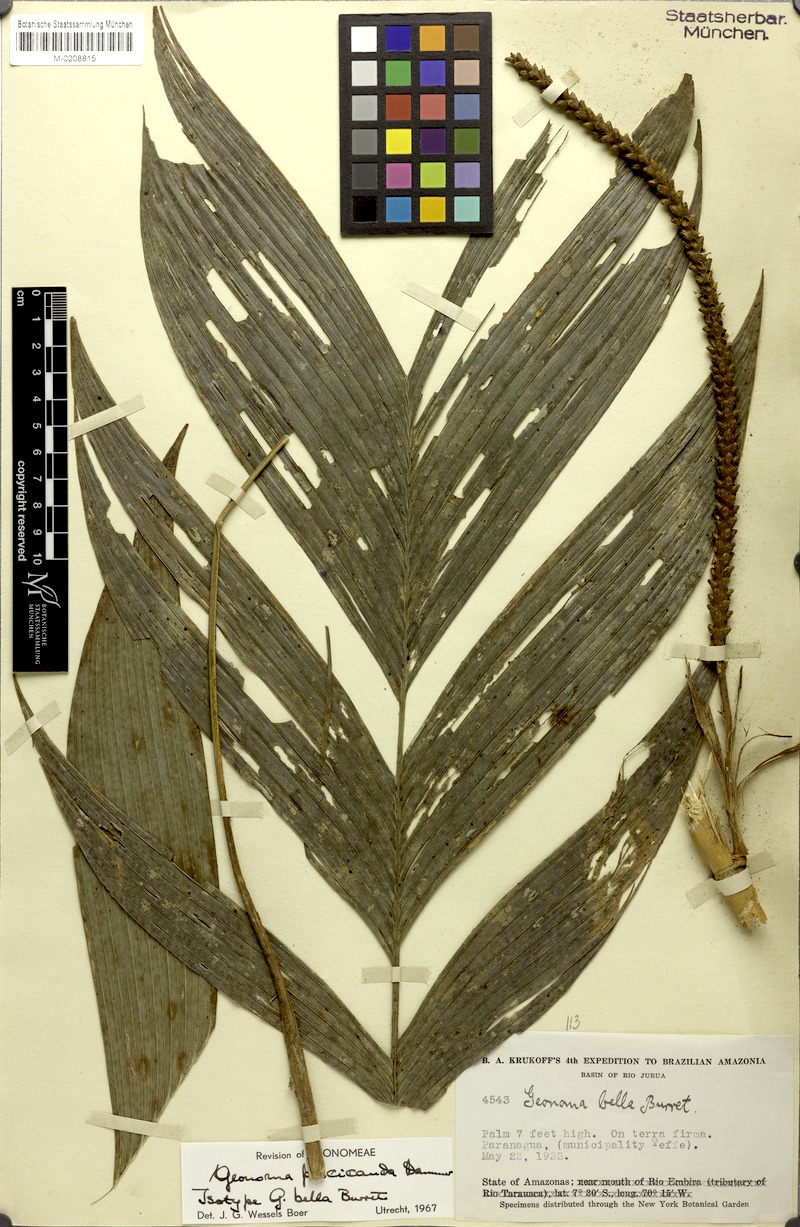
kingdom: Plantae
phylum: Tracheophyta
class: Liliopsida
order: Arecales
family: Arecaceae
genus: Geonoma
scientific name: Geonoma stricta
